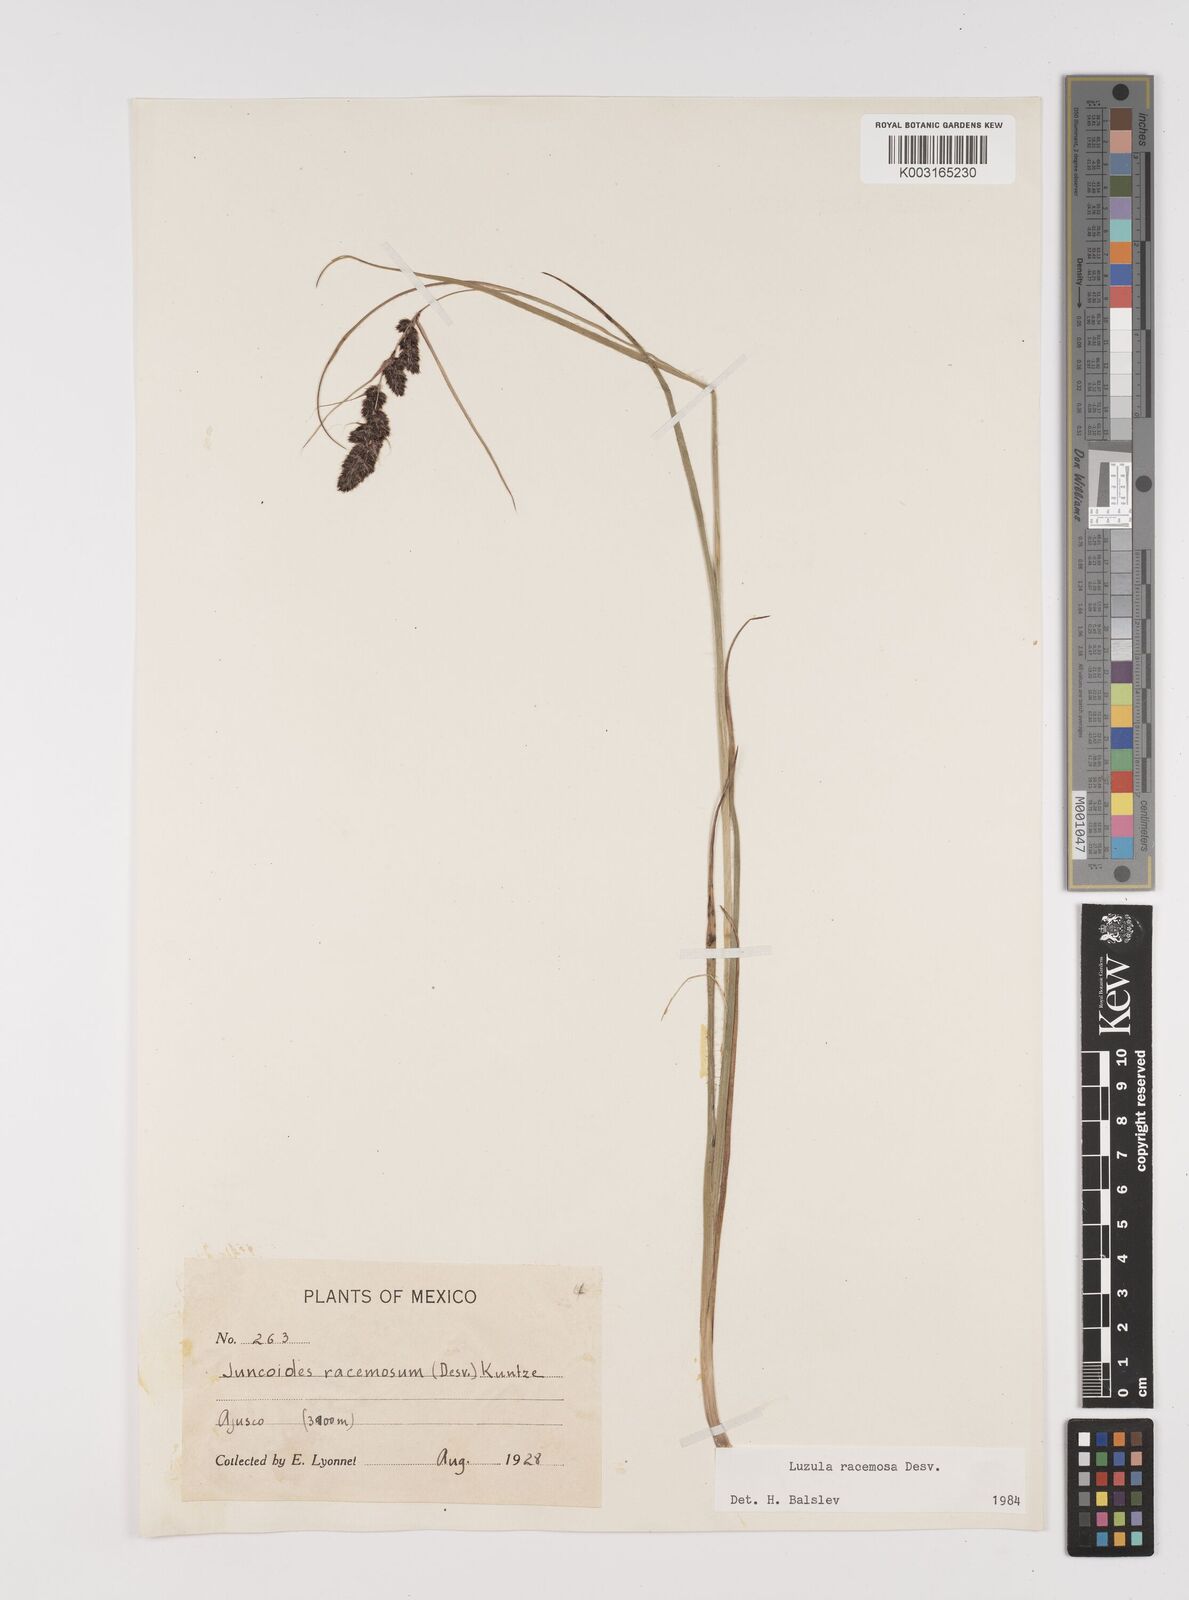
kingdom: Plantae
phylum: Tracheophyta
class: Liliopsida
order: Poales
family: Juncaceae
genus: Luzula
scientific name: Luzula racemosa
